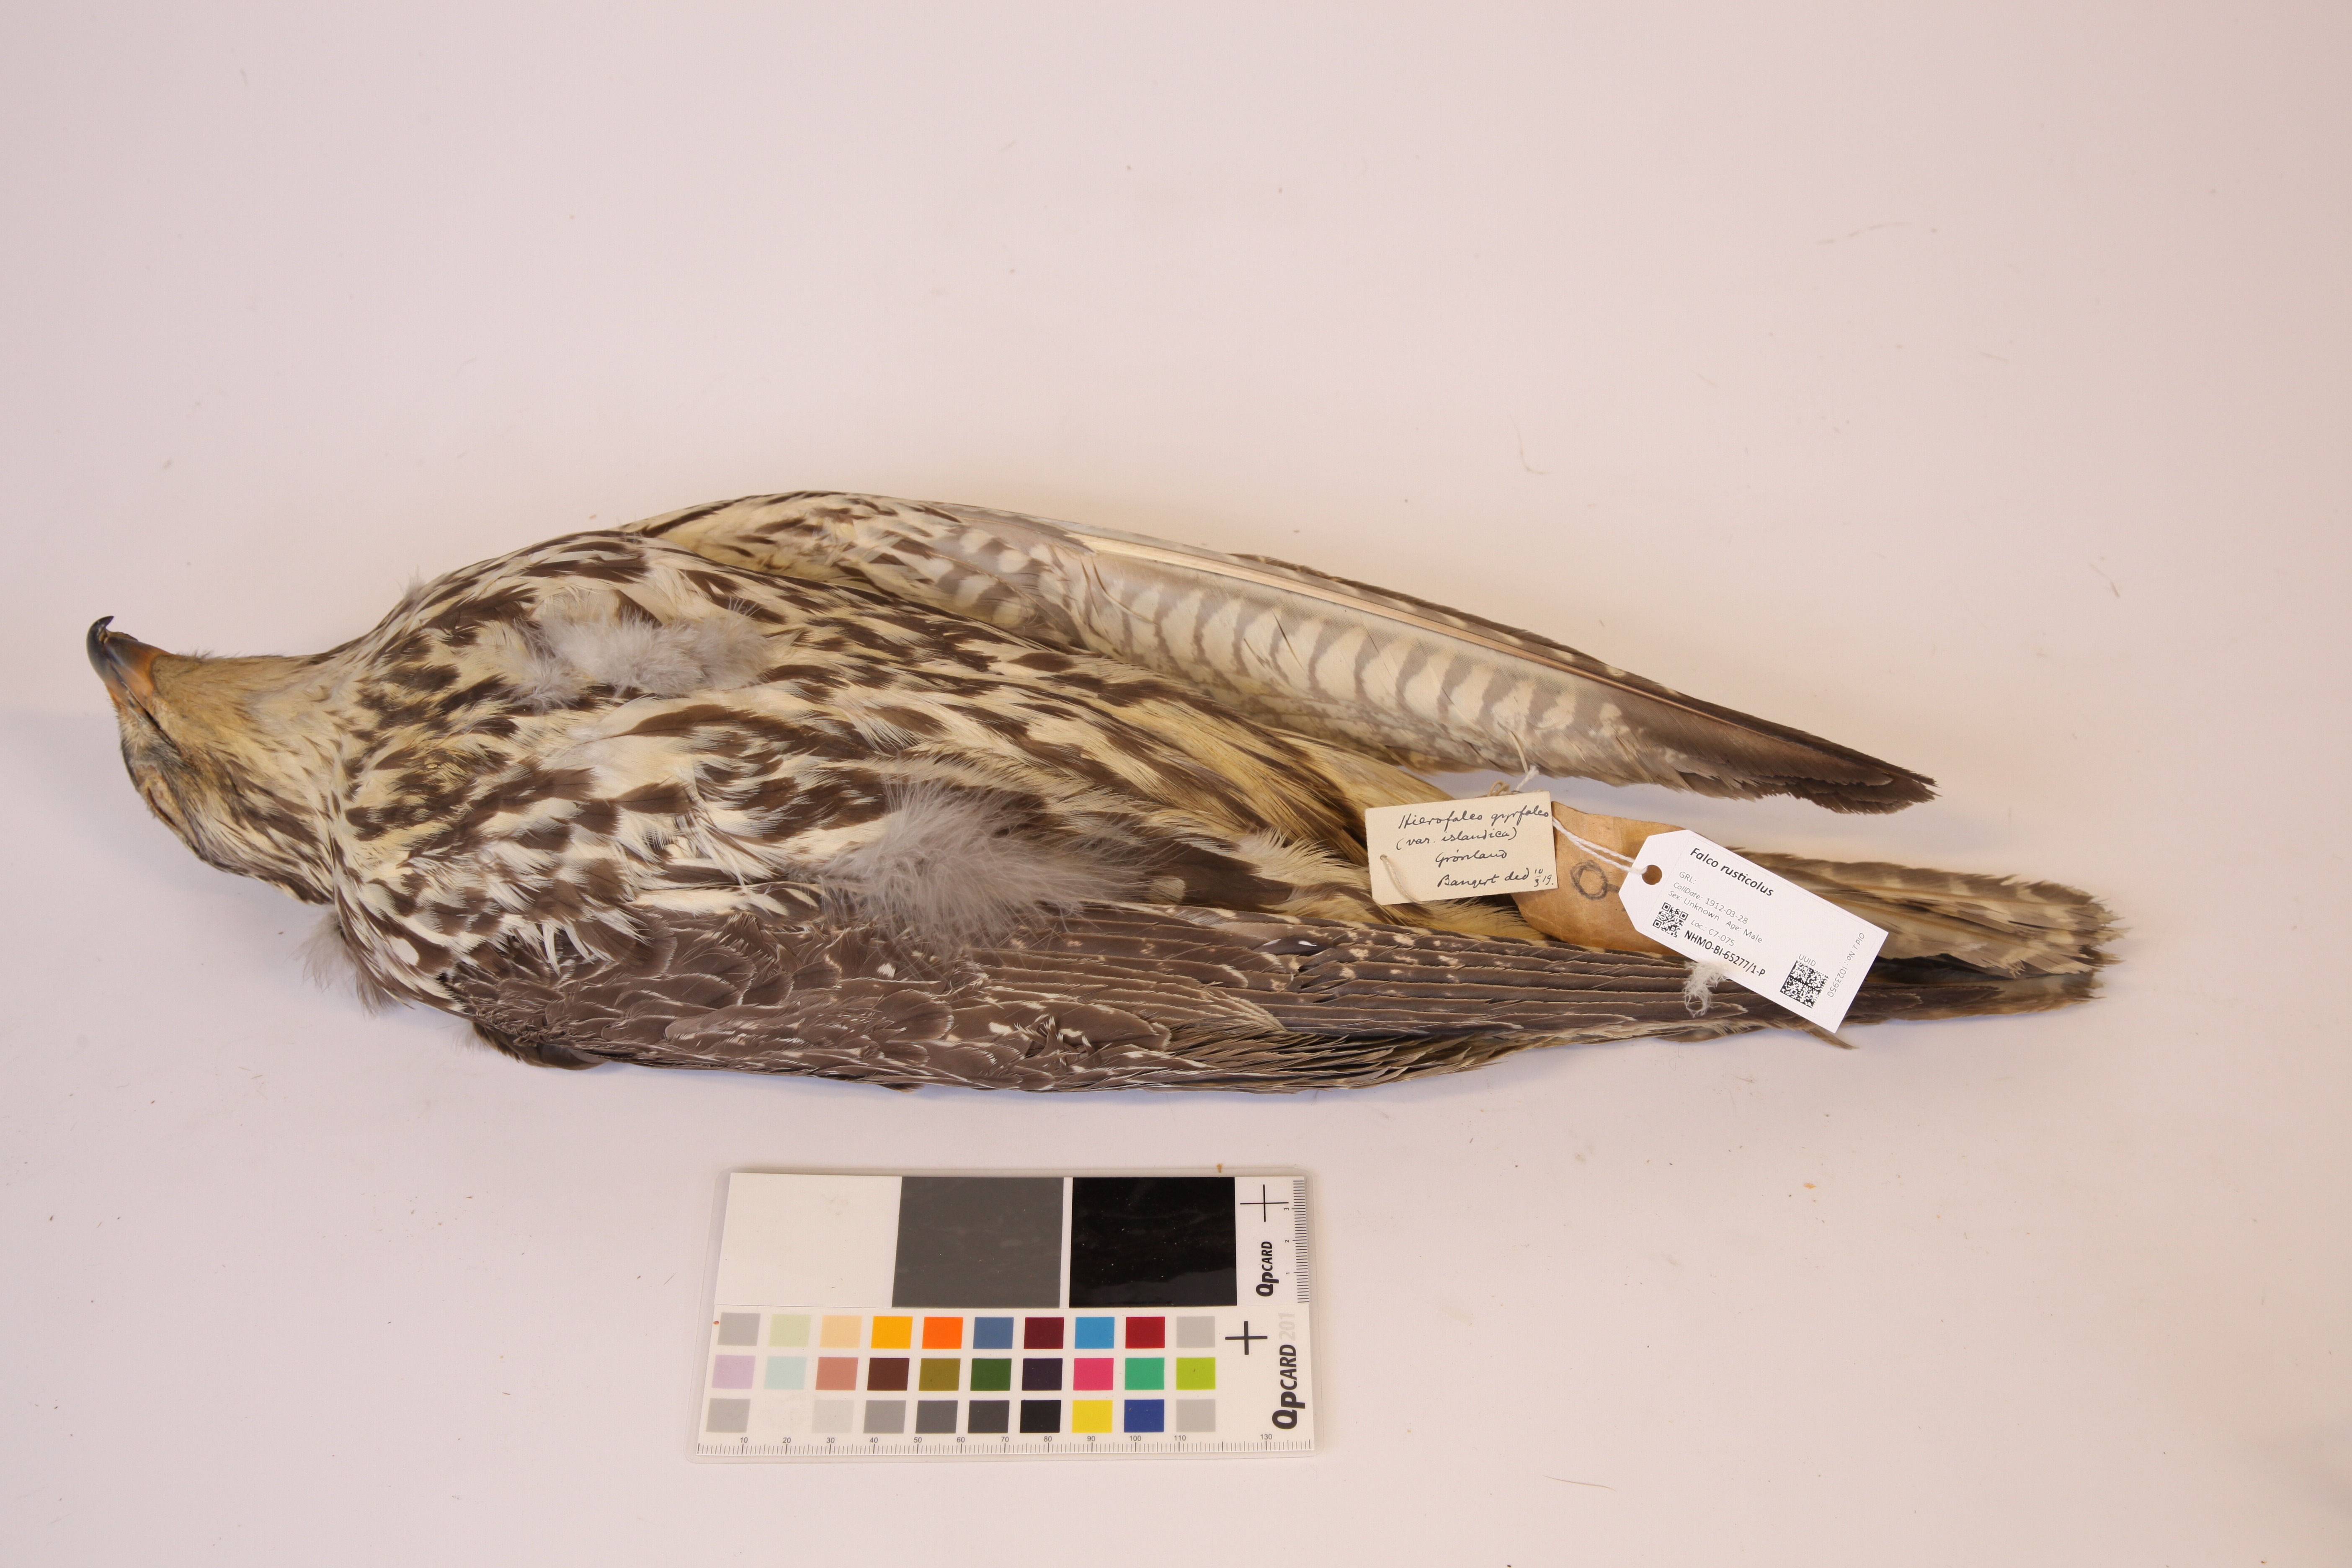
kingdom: Animalia
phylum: Chordata
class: Aves
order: Falconiformes
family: Falconidae
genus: Falco
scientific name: Falco rusticolus
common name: Gyrfalcon
